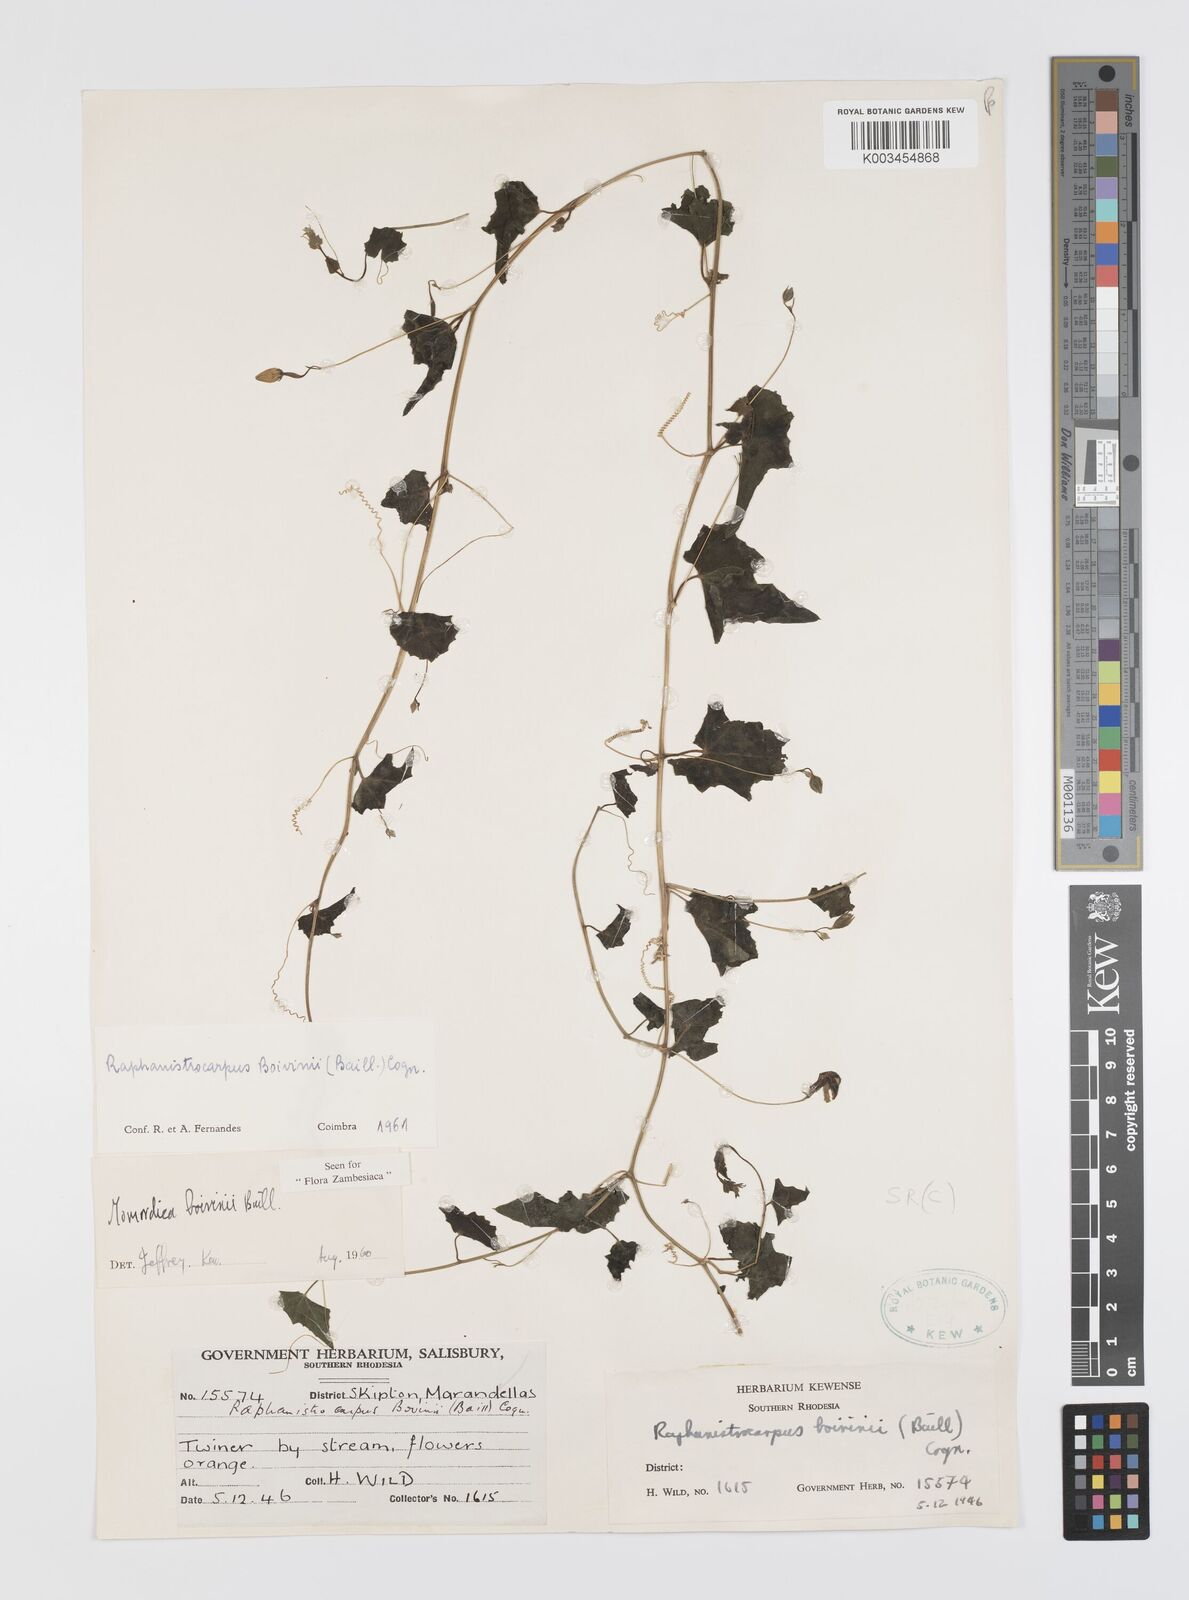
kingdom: Plantae
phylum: Tracheophyta
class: Magnoliopsida
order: Cucurbitales
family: Cucurbitaceae
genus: Momordica
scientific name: Momordica boivinii
